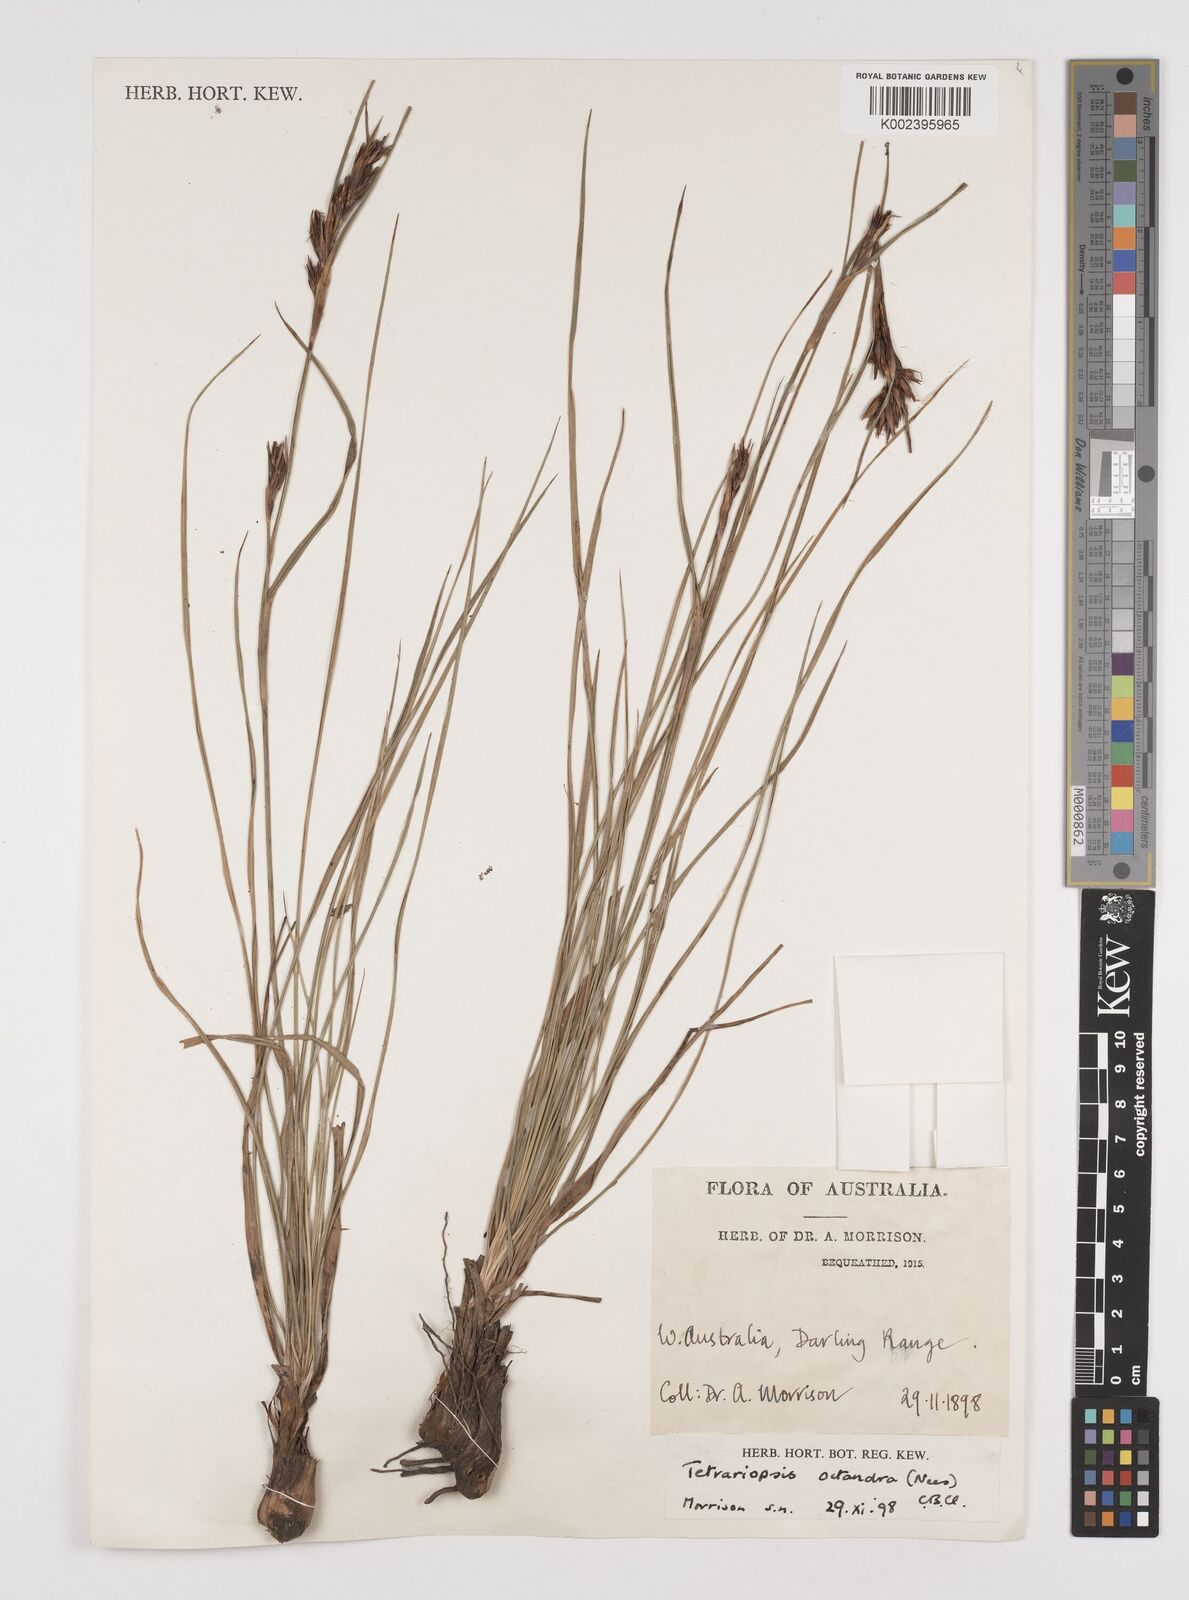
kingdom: Plantae
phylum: Tracheophyta
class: Liliopsida
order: Poales
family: Cyperaceae
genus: Tetraria
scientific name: Tetraria octandra
